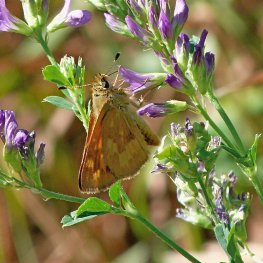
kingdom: Animalia
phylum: Arthropoda
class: Insecta
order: Lepidoptera
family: Hesperiidae
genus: Ochlodes
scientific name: Ochlodes sylvanoides
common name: Woodland Skipper
